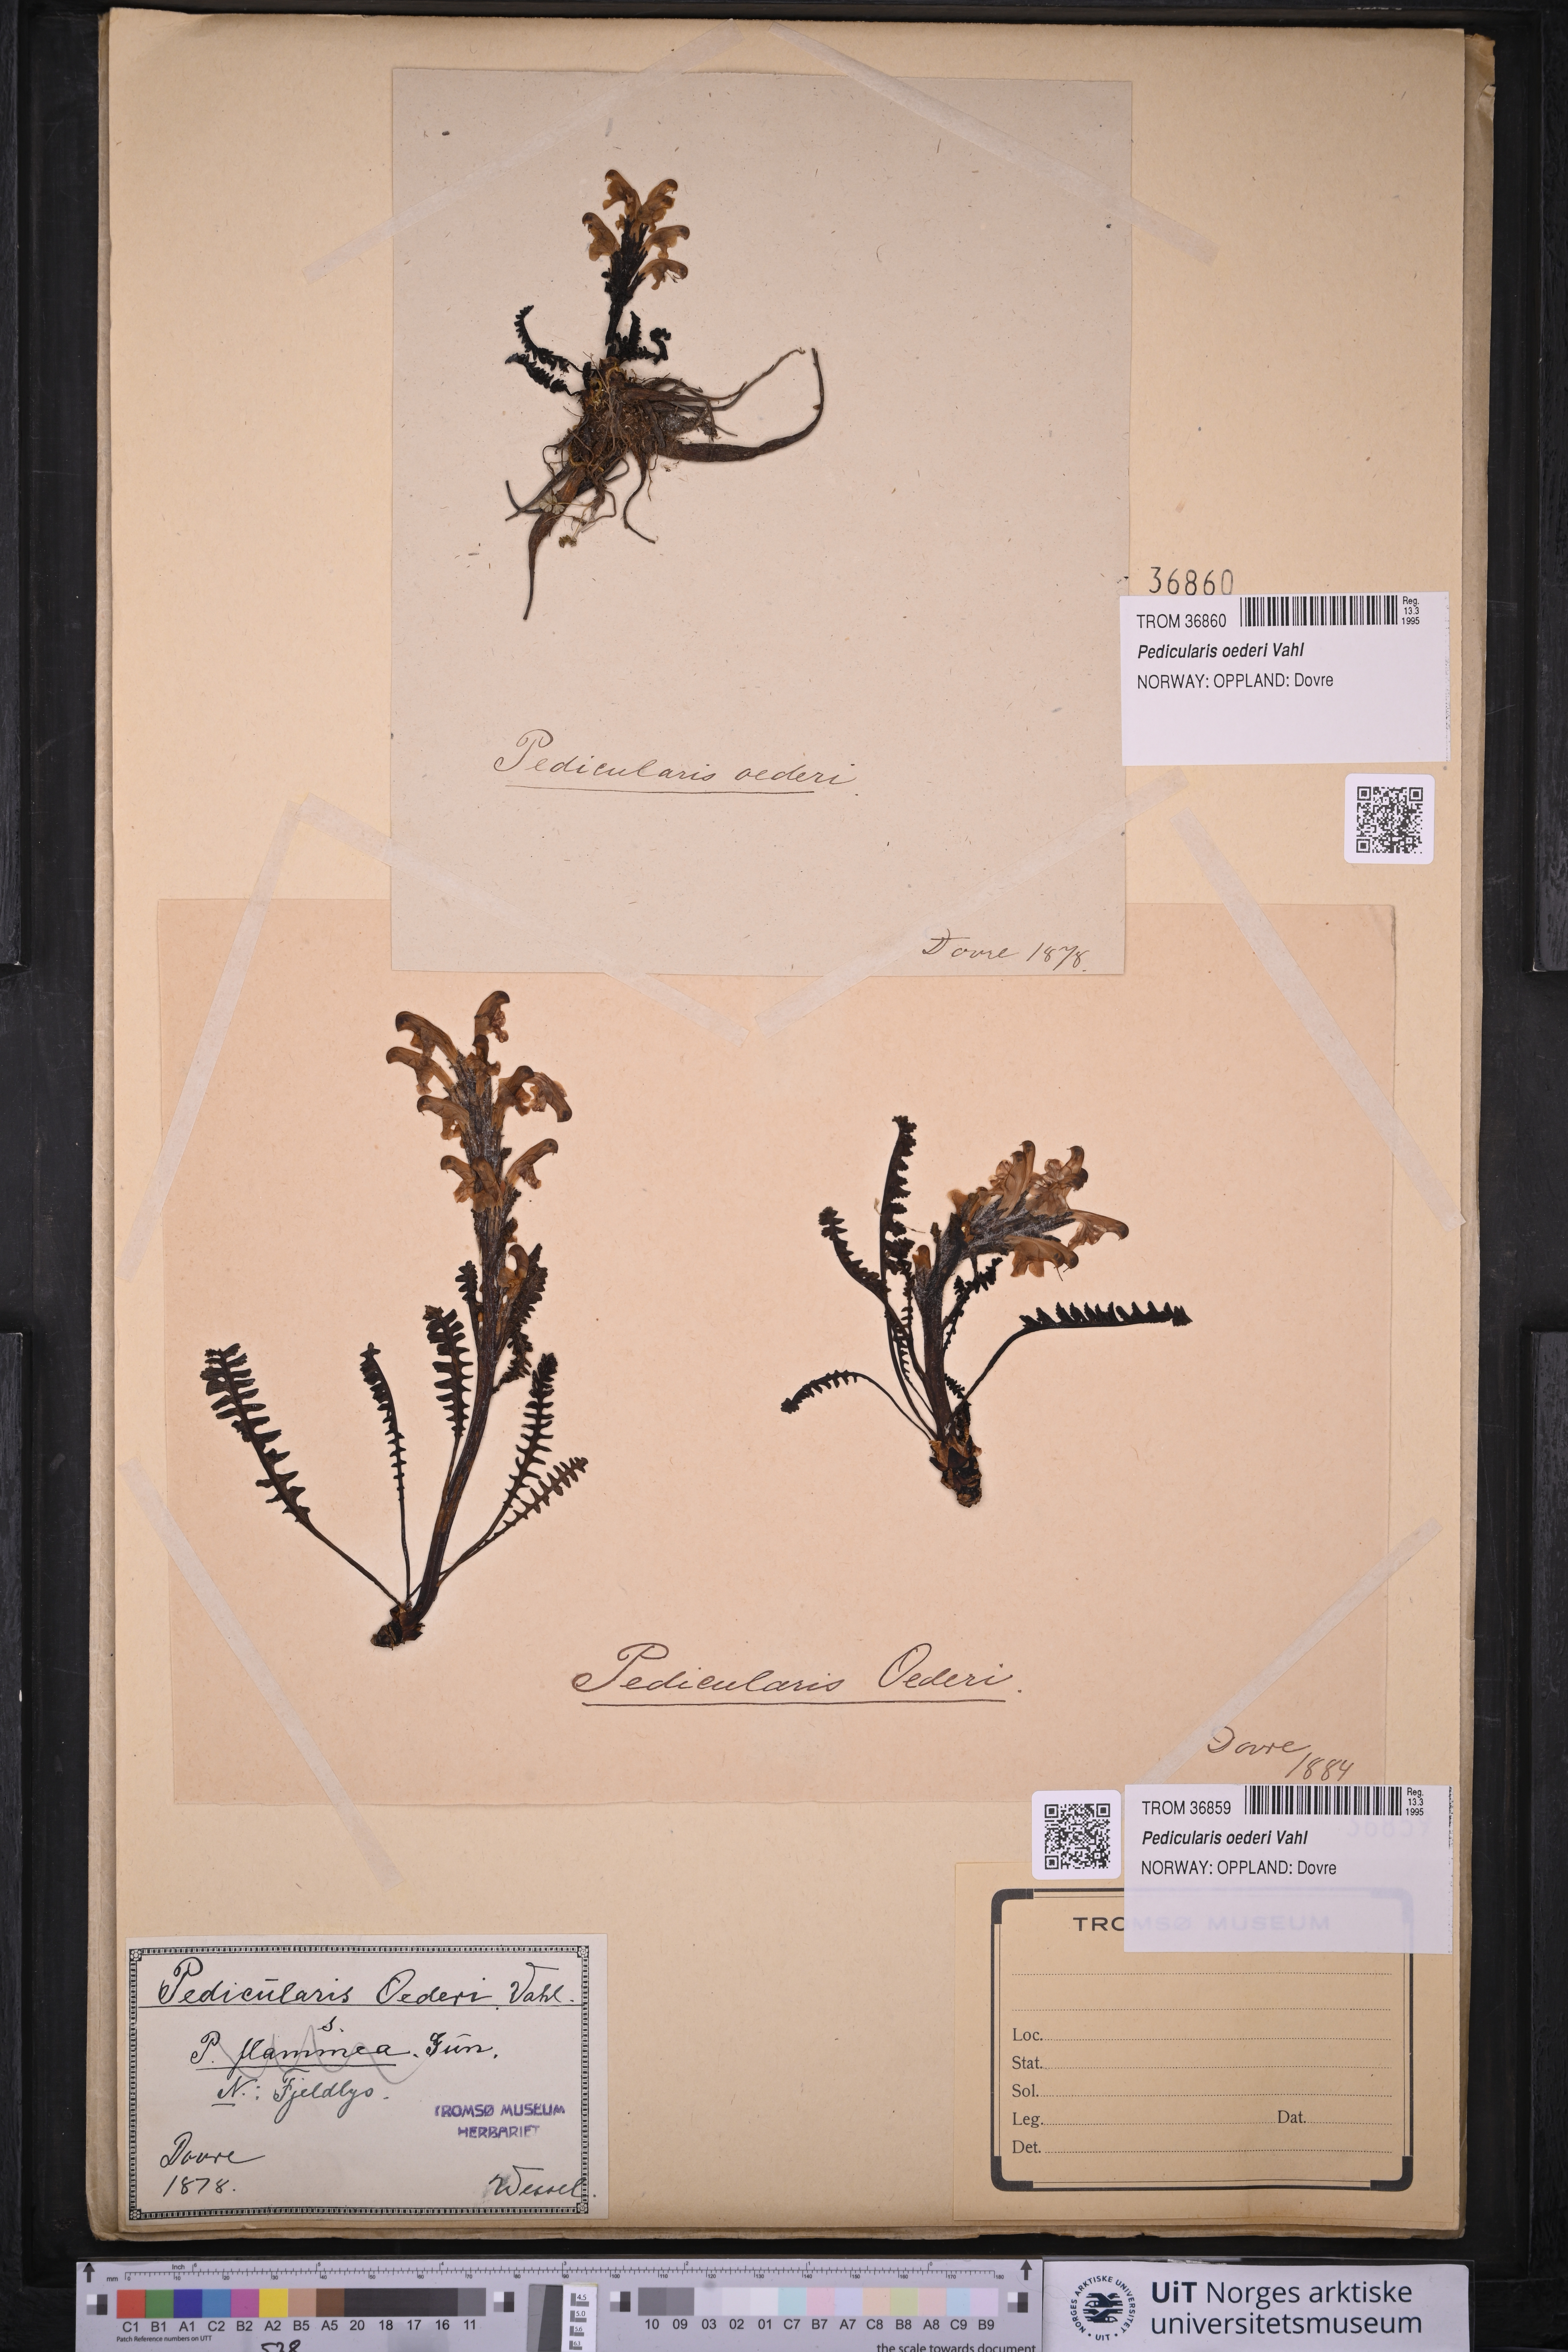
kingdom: Plantae
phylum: Tracheophyta
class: Magnoliopsida
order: Lamiales
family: Orobanchaceae
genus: Pedicularis
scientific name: Pedicularis oederi
